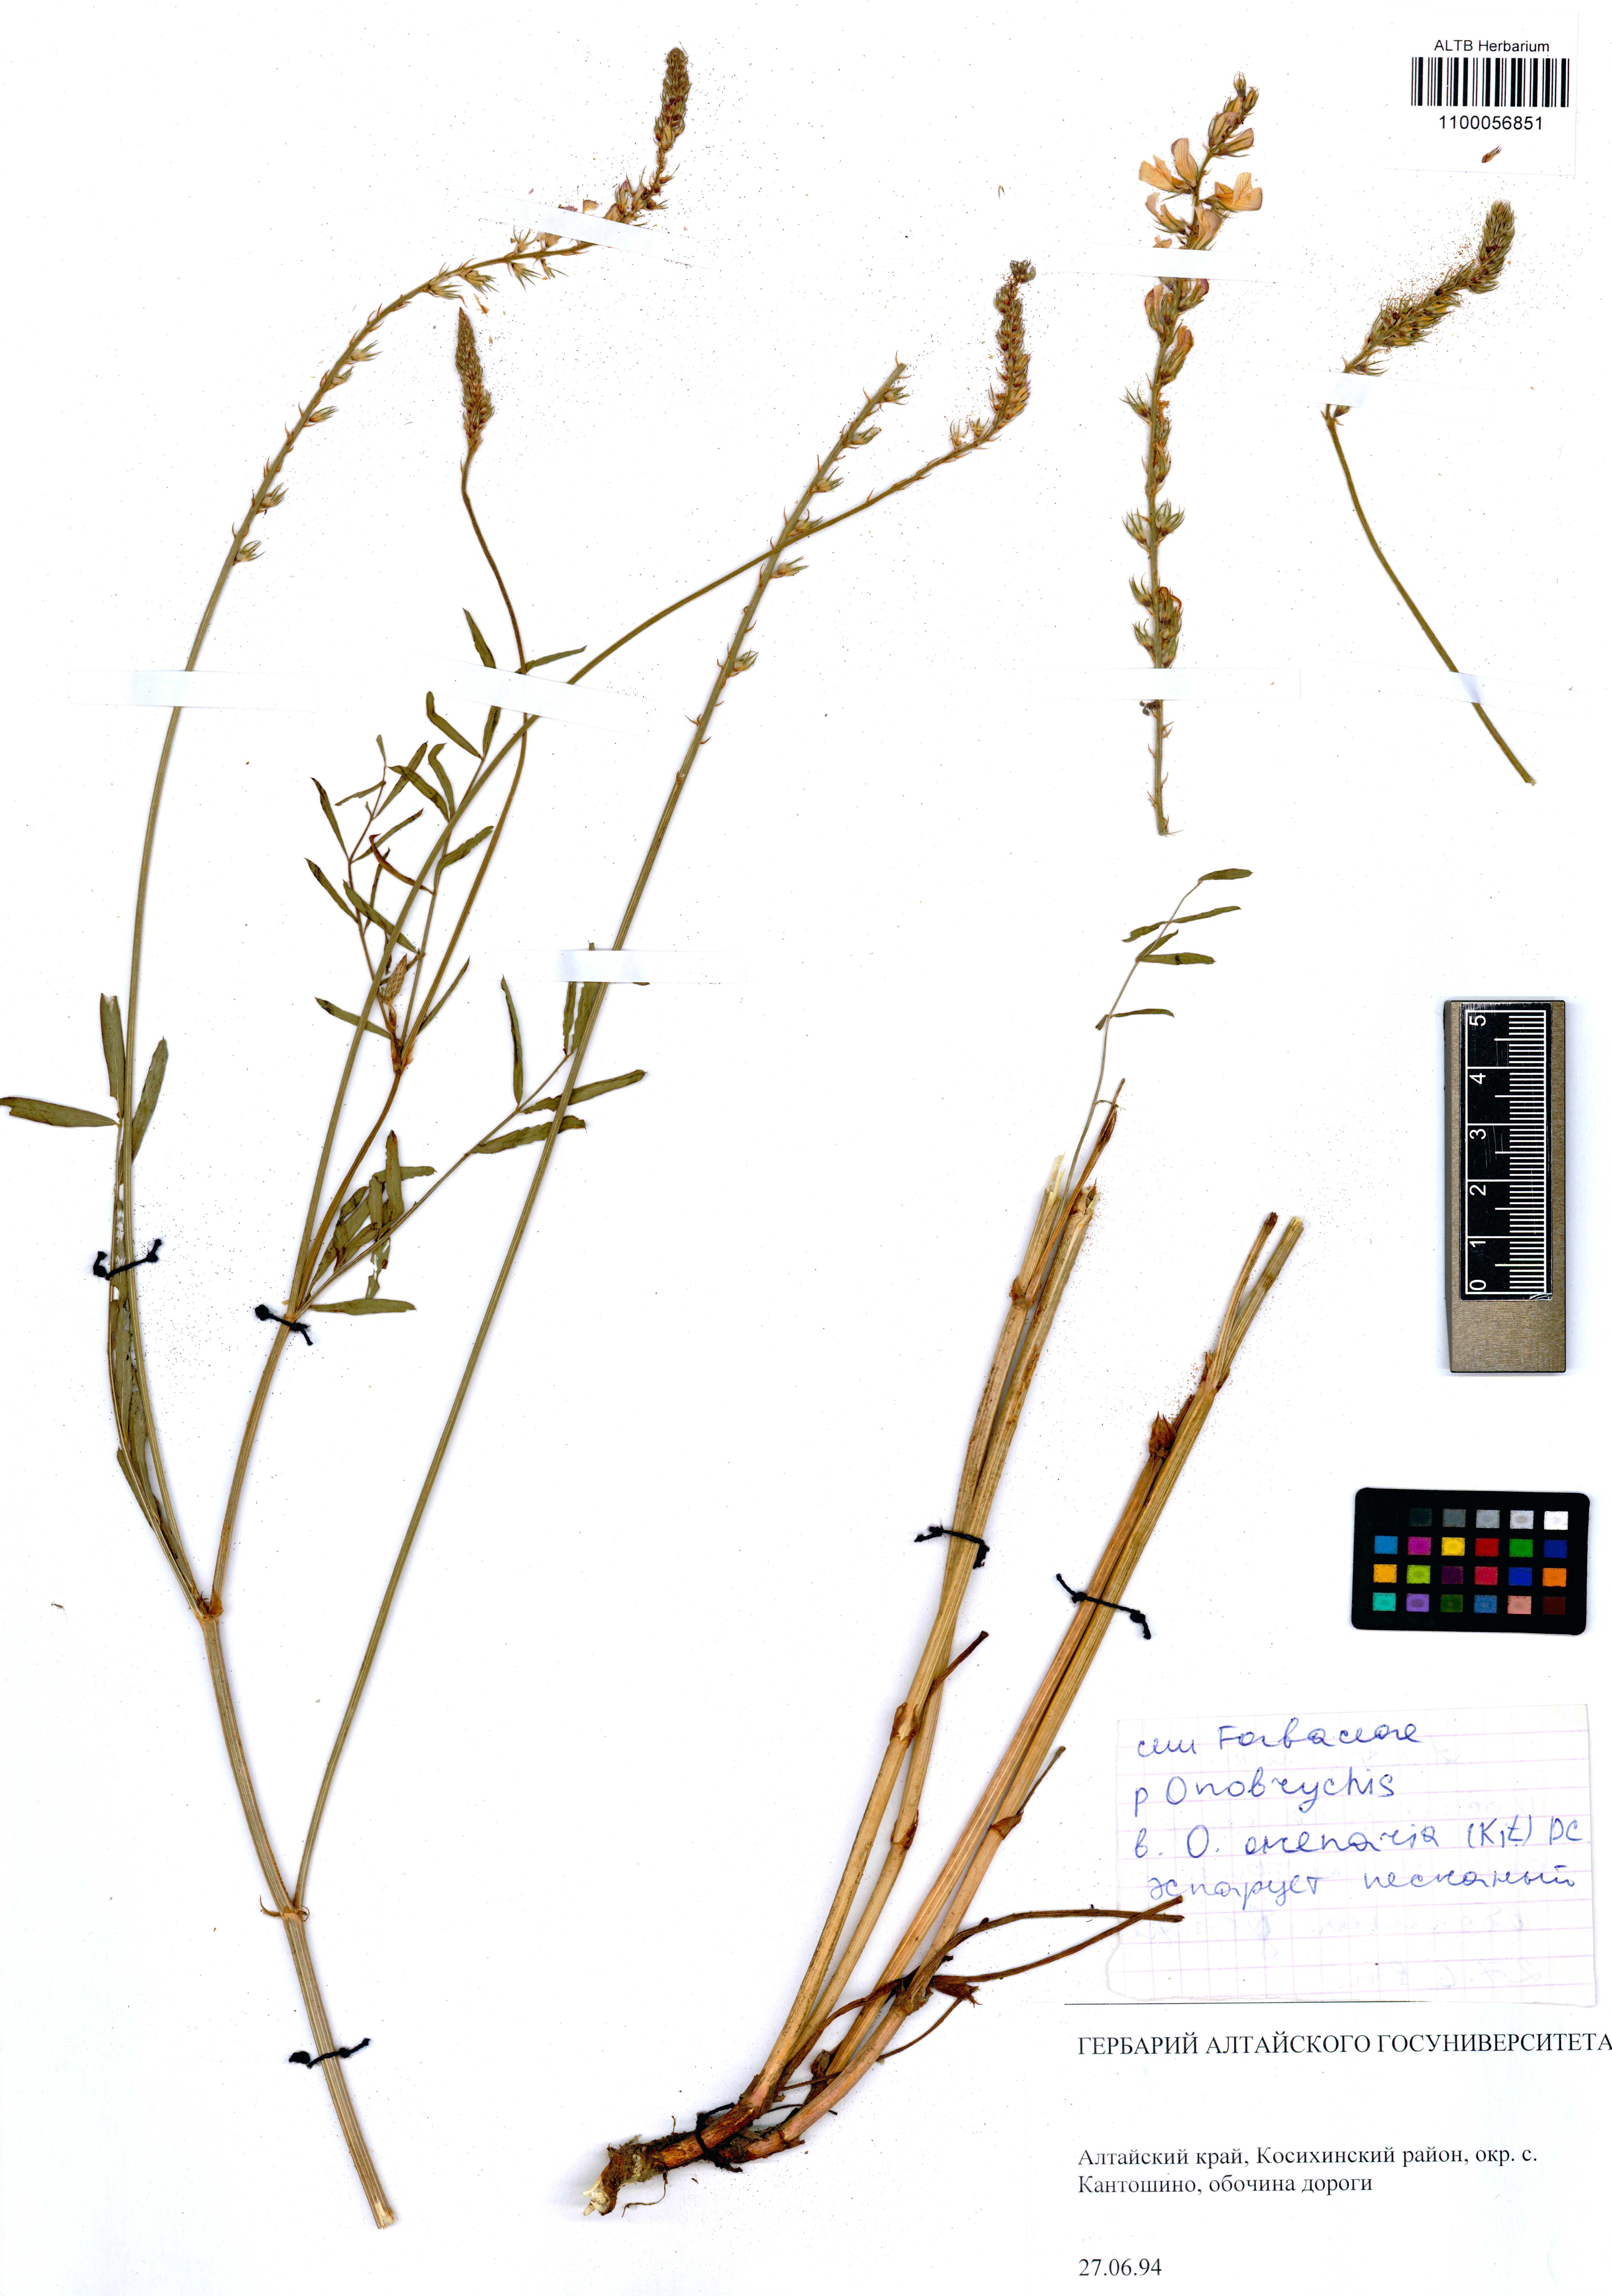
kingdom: Plantae
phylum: Tracheophyta
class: Magnoliopsida
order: Fabales
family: Fabaceae
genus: Onobrychis
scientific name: Onobrychis arenaria
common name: Sand esparcet
